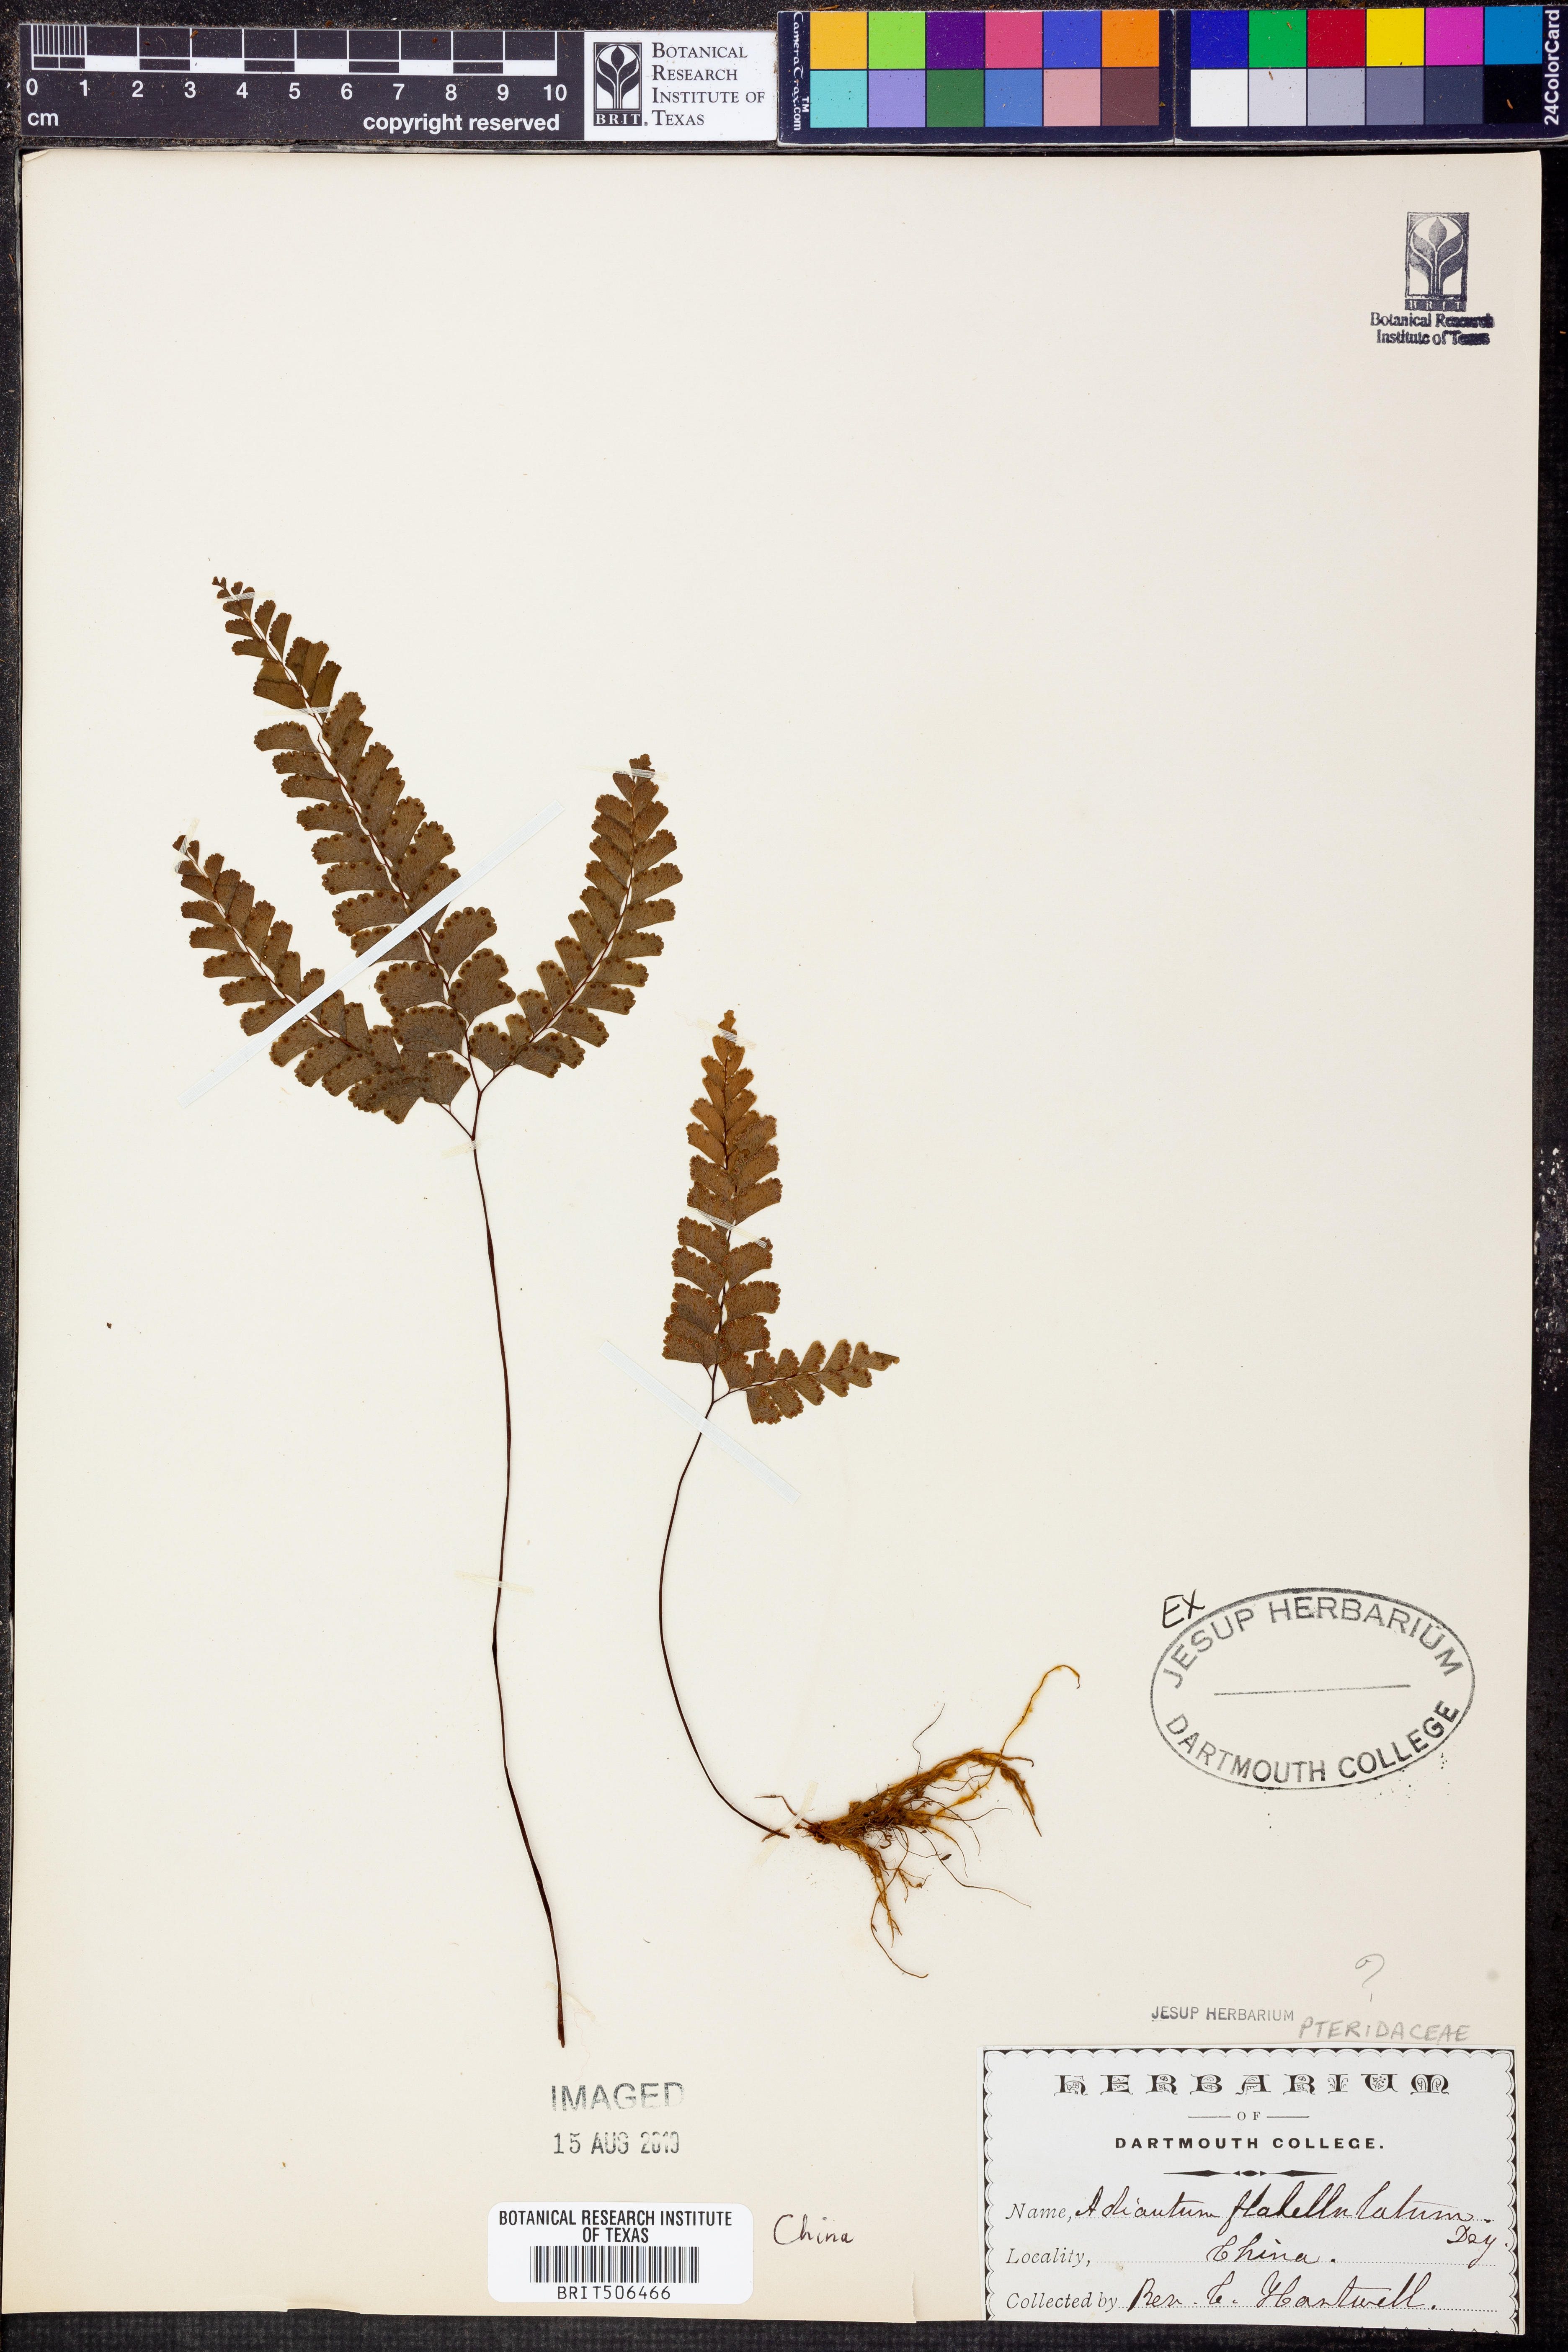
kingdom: Plantae
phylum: Tracheophyta
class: Polypodiopsida
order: Polypodiales
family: Pteridaceae
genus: Adiantum
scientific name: Adiantum flabellulatum
